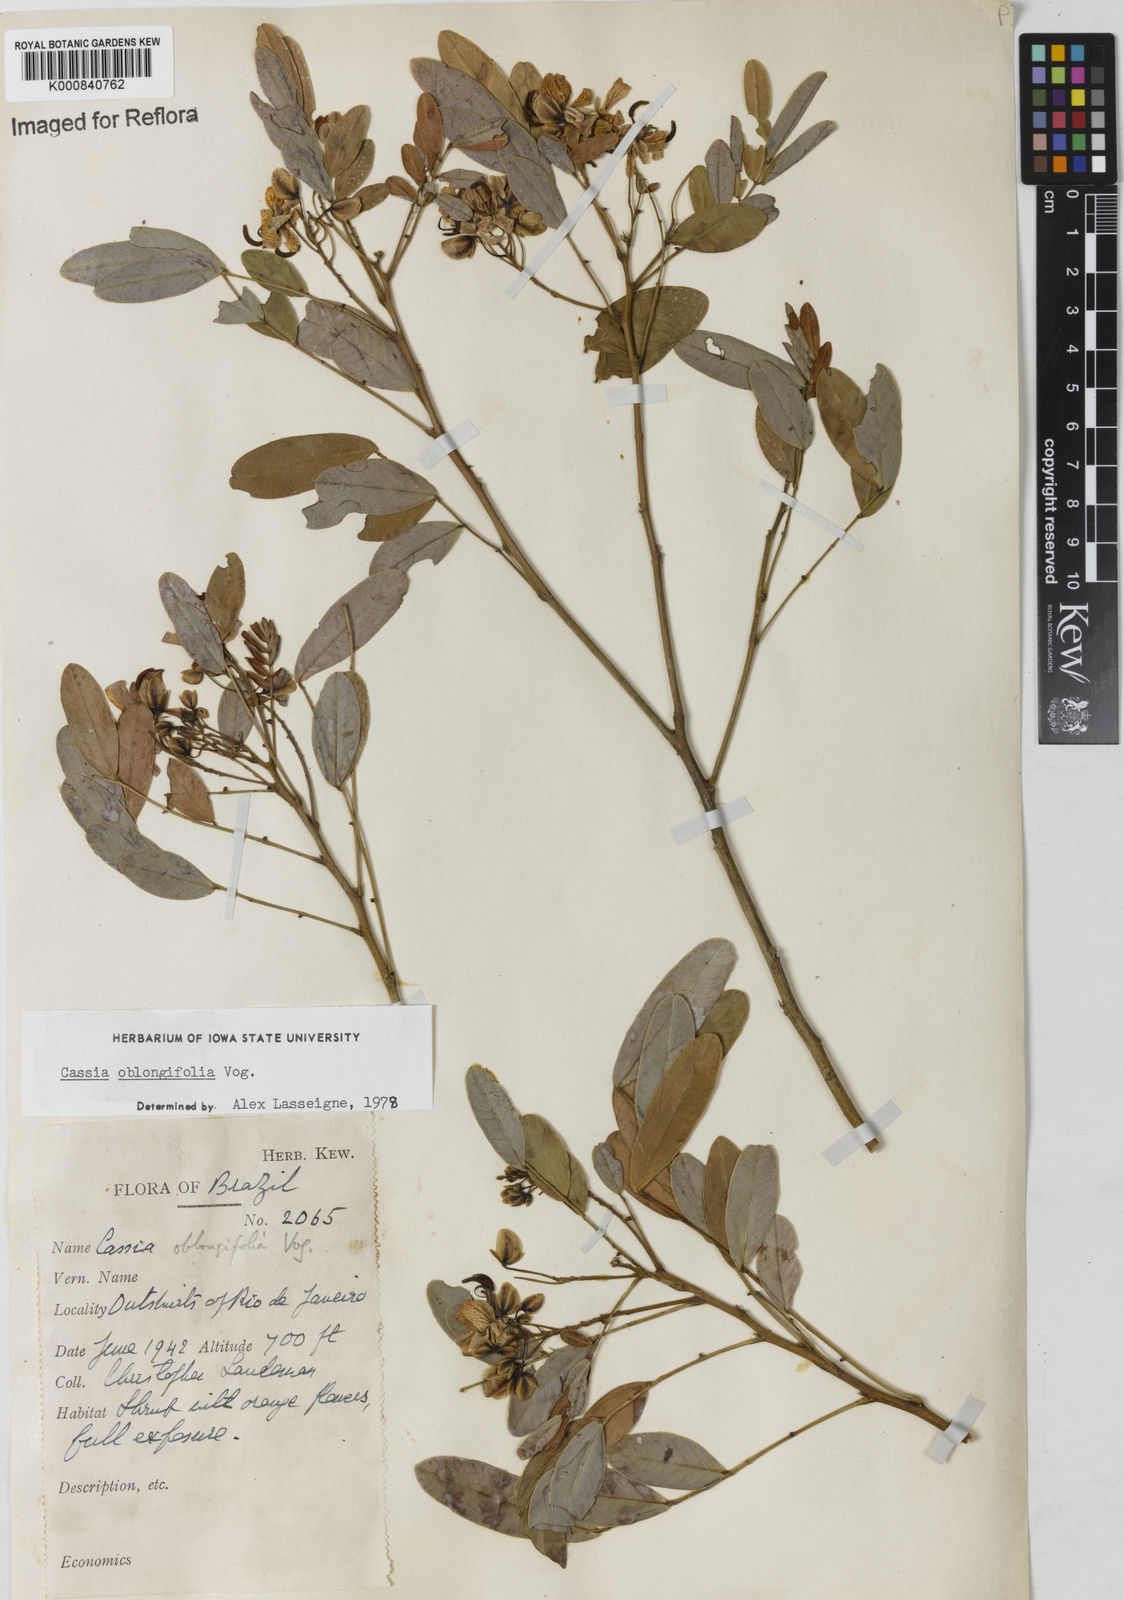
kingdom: Plantae
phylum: Tracheophyta
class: Magnoliopsida
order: Fabales
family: Fabaceae
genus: Senna
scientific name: Senna oblongifolia
